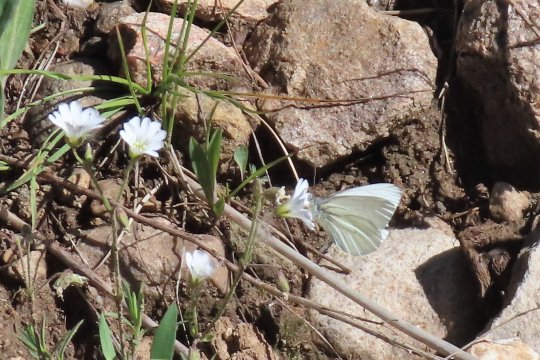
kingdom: Animalia
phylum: Arthropoda
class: Insecta
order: Lepidoptera
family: Pieridae
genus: Pieris
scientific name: Pieris marginalis
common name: Margined White
